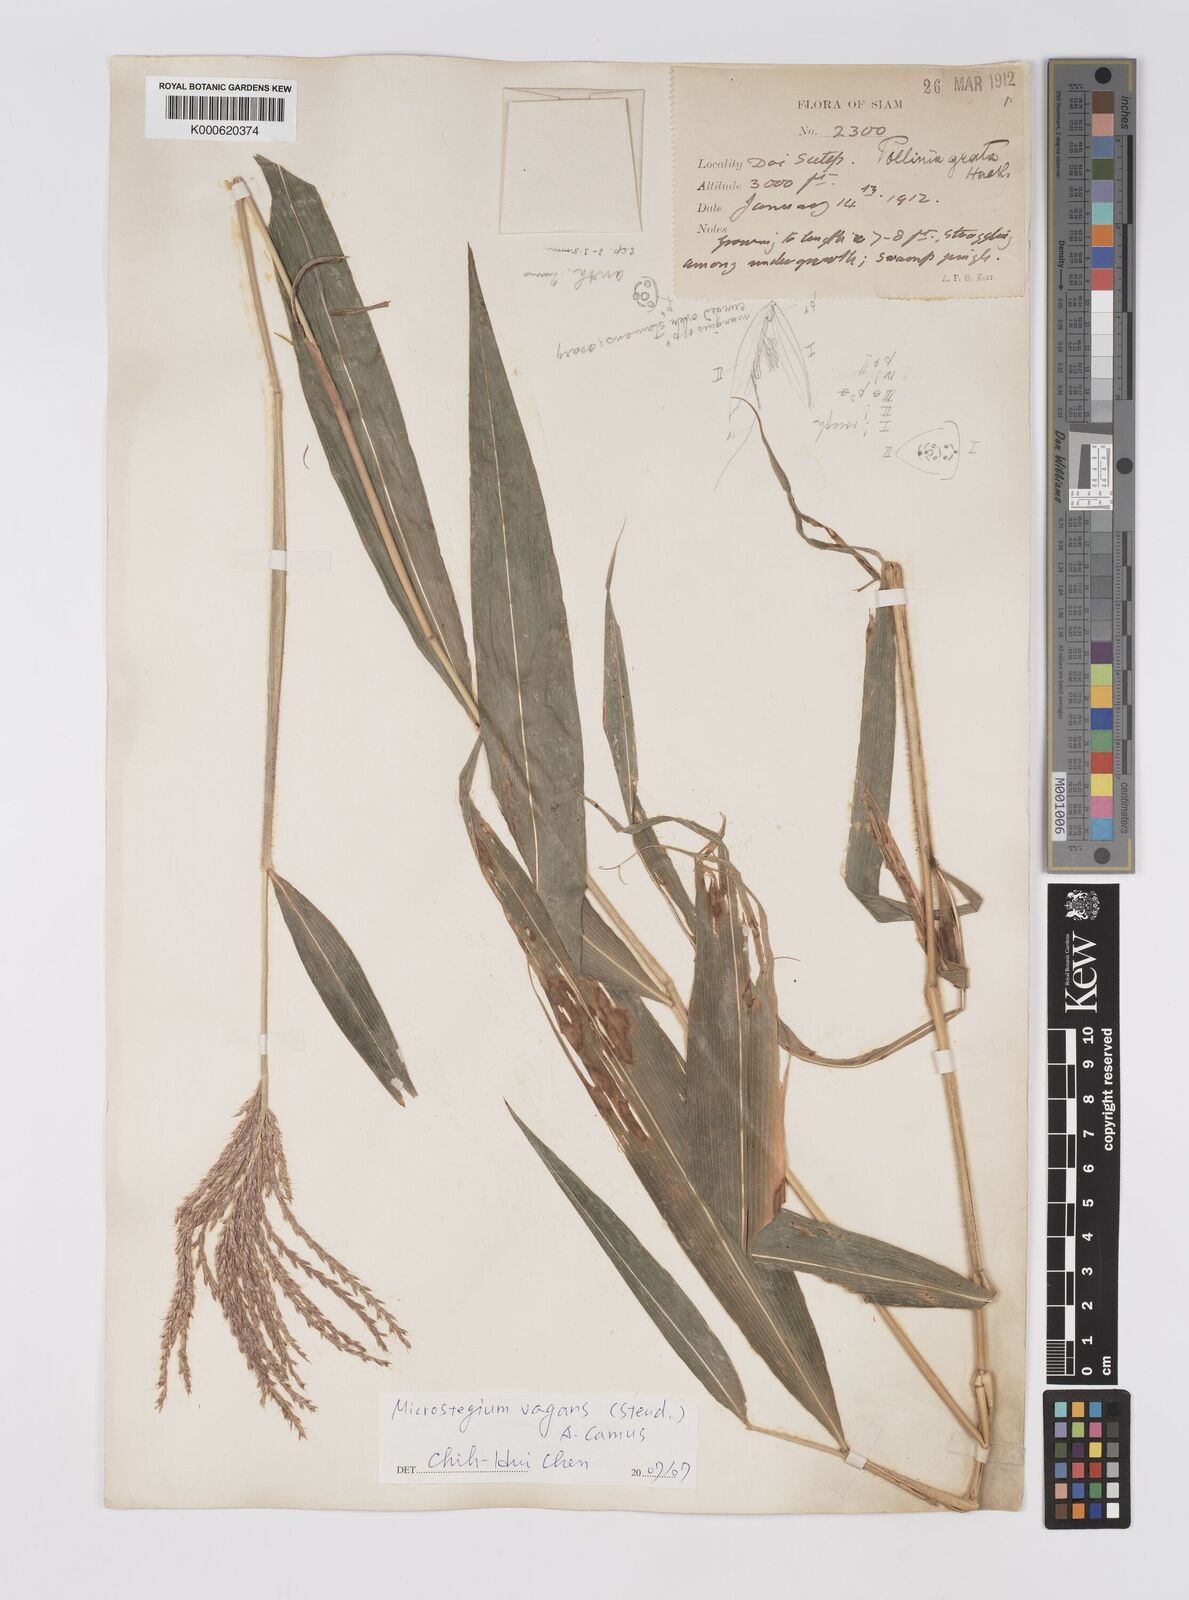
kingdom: Plantae
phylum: Tracheophyta
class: Liliopsida
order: Poales
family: Poaceae
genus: Microstegium
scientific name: Microstegium fasciculatum
